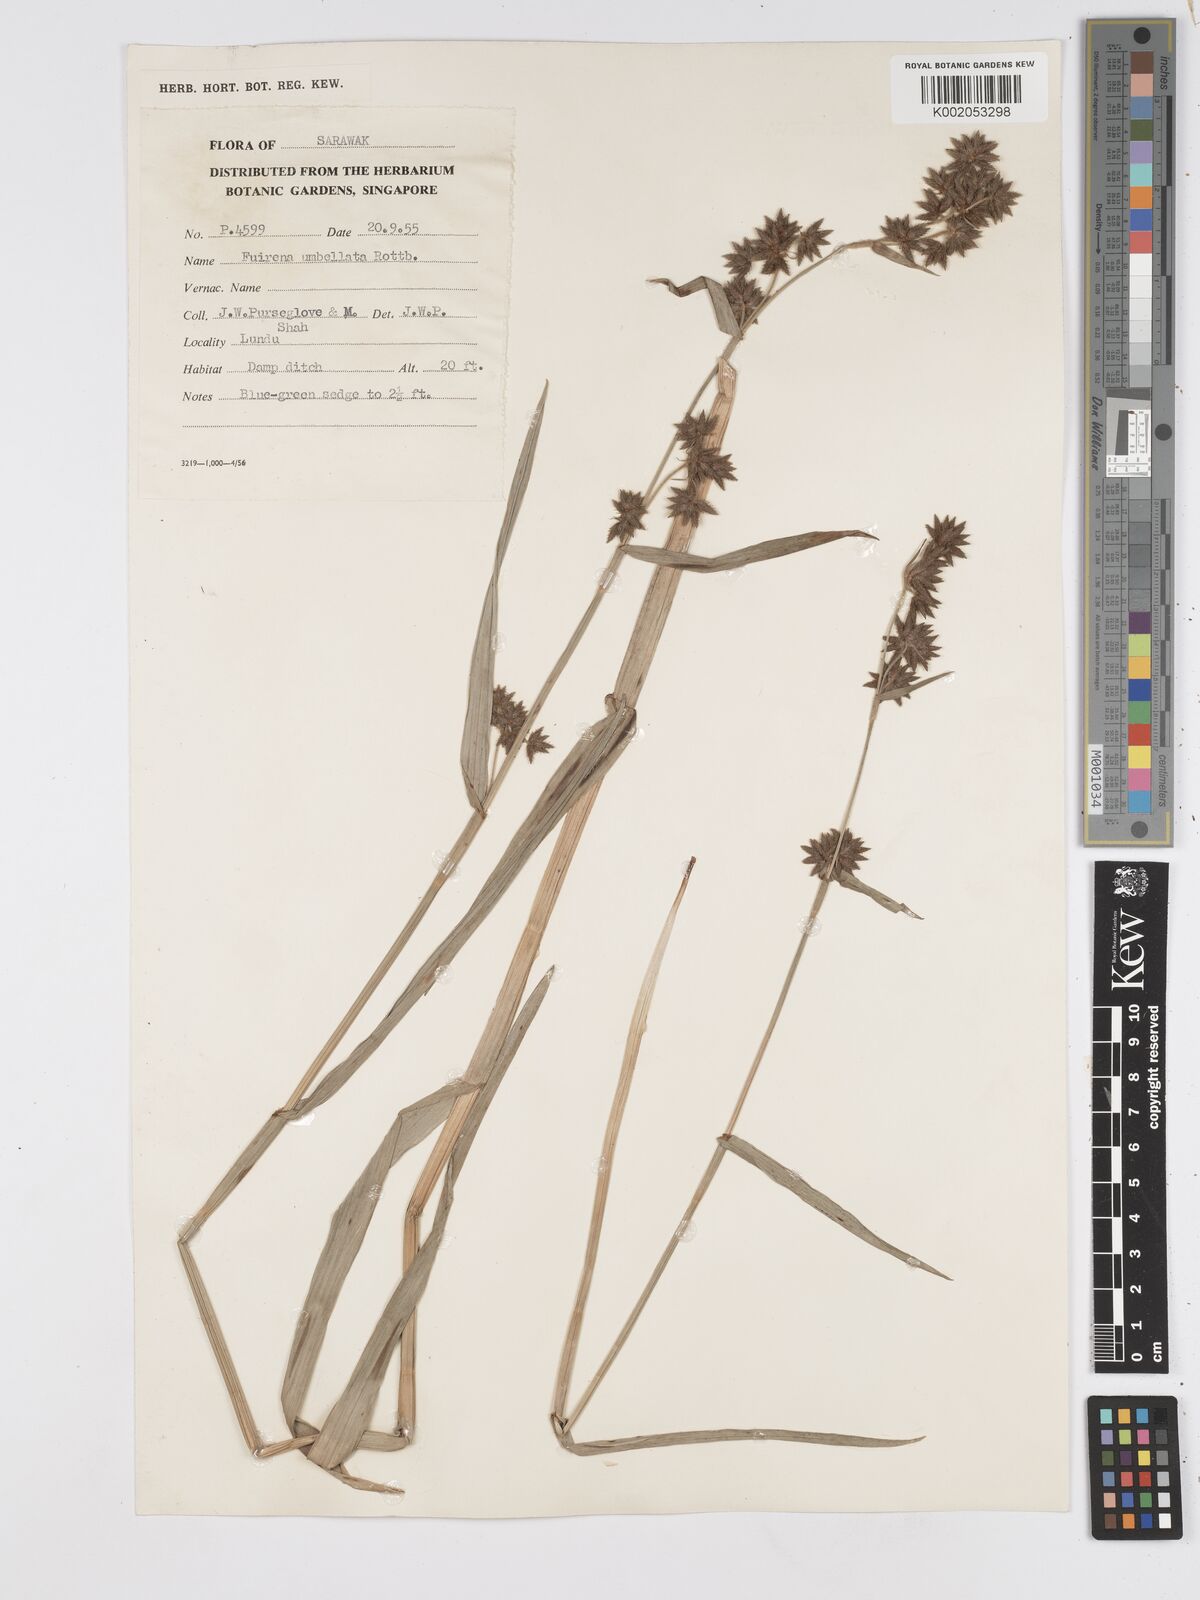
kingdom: Plantae
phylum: Tracheophyta
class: Liliopsida
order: Poales
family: Cyperaceae
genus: Fuirena
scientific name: Fuirena umbellata
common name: Yefen
